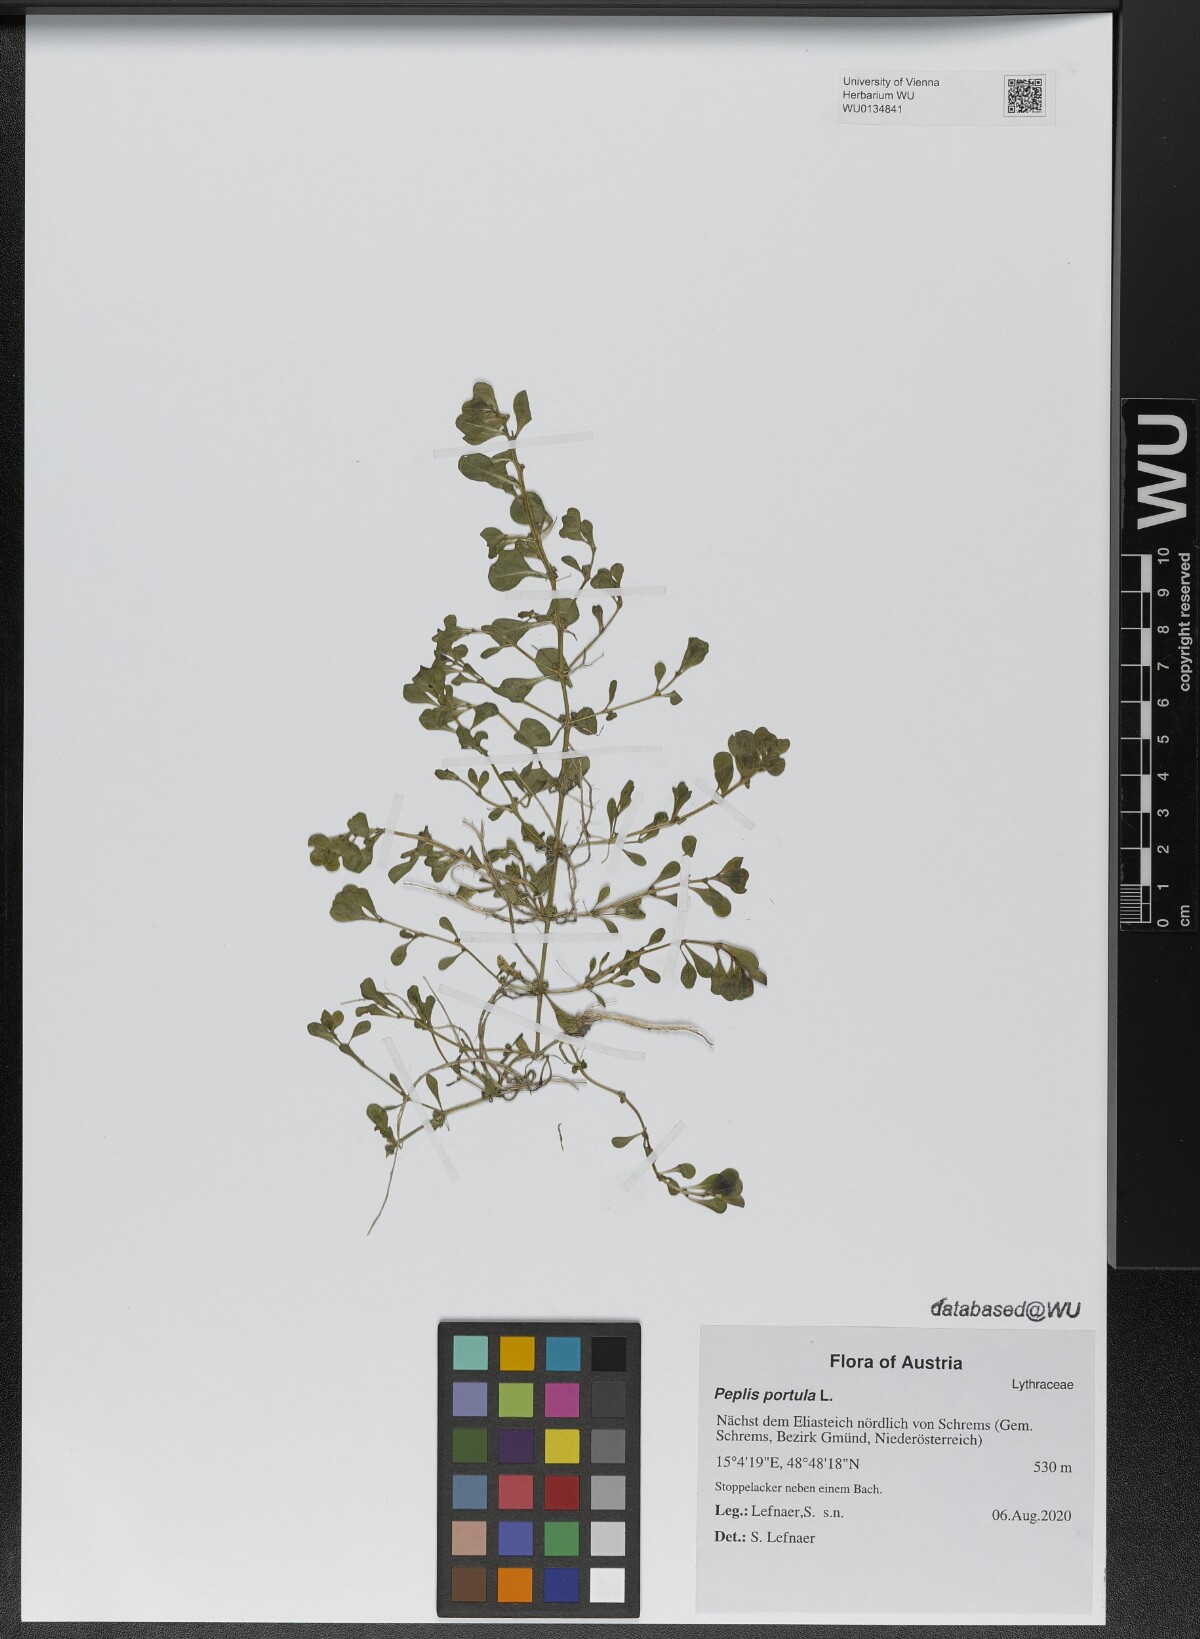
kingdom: Plantae
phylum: Tracheophyta
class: Magnoliopsida
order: Myrtales
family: Lythraceae
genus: Lythrum
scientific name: Lythrum portula
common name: Water purslane
